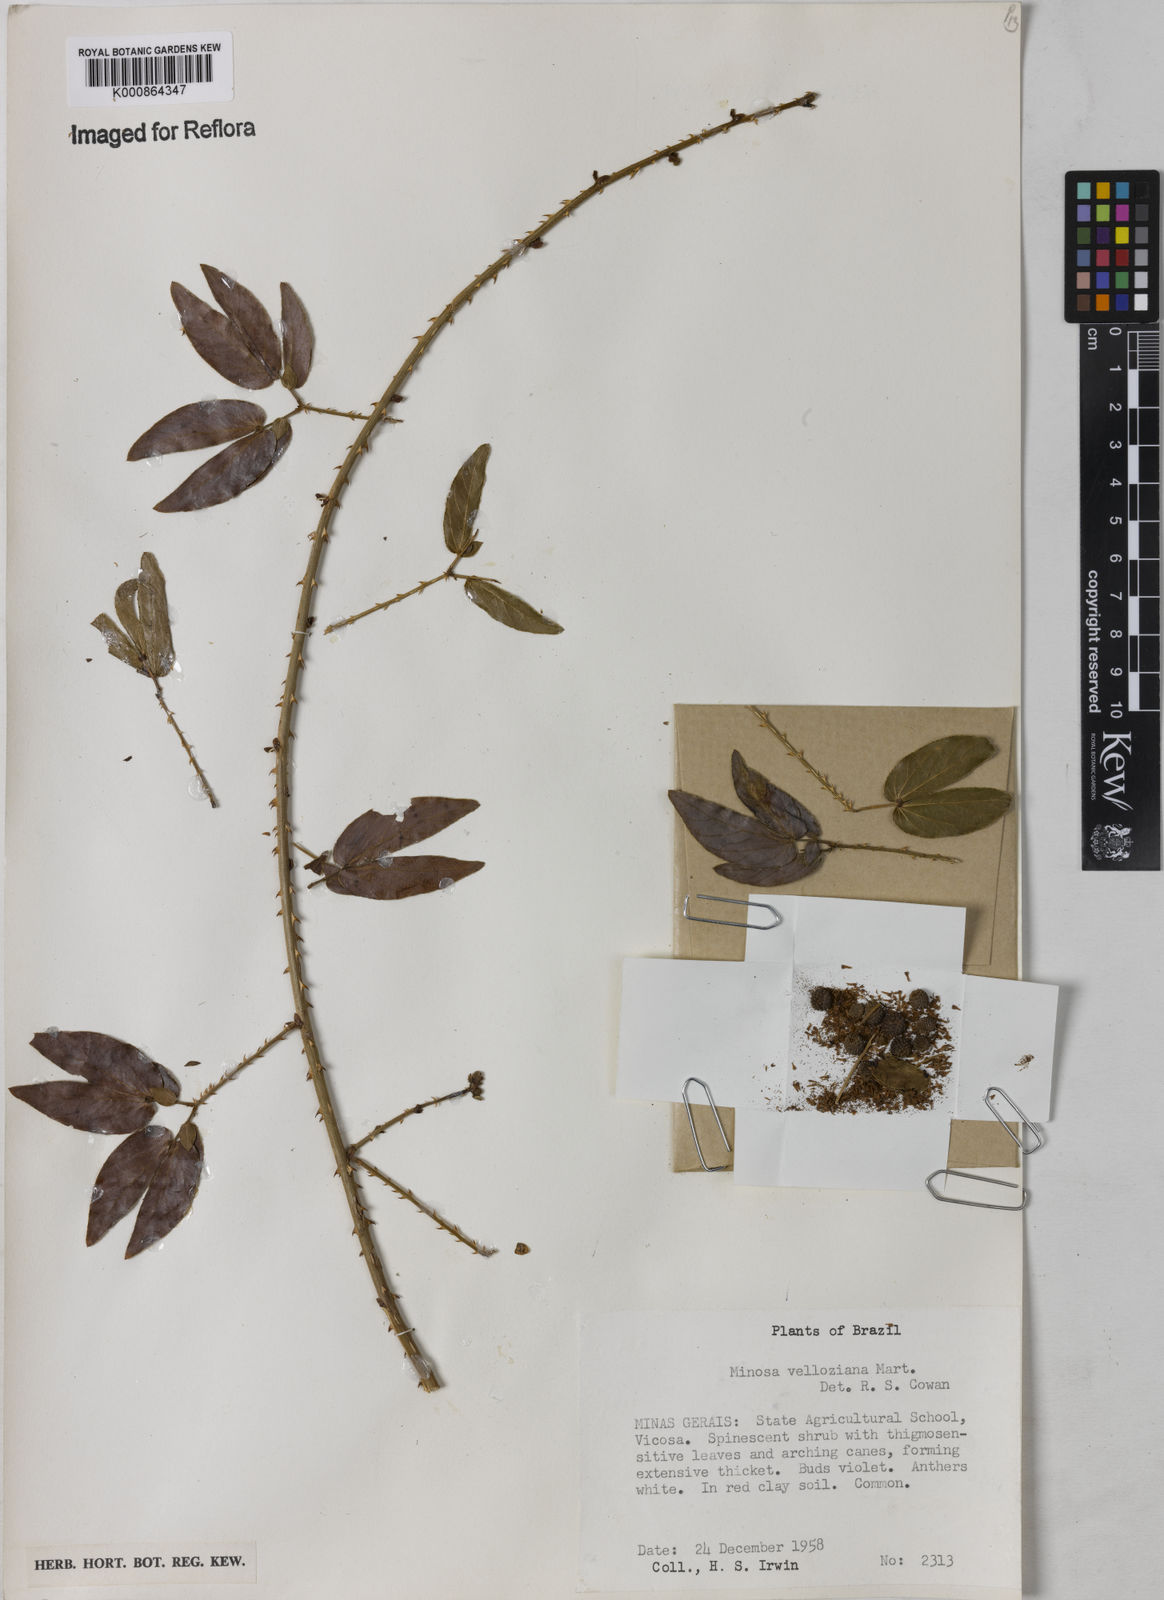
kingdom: Plantae
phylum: Tracheophyta
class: Magnoliopsida
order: Fabales
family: Fabaceae
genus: Mimosa
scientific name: Mimosa velloziana
